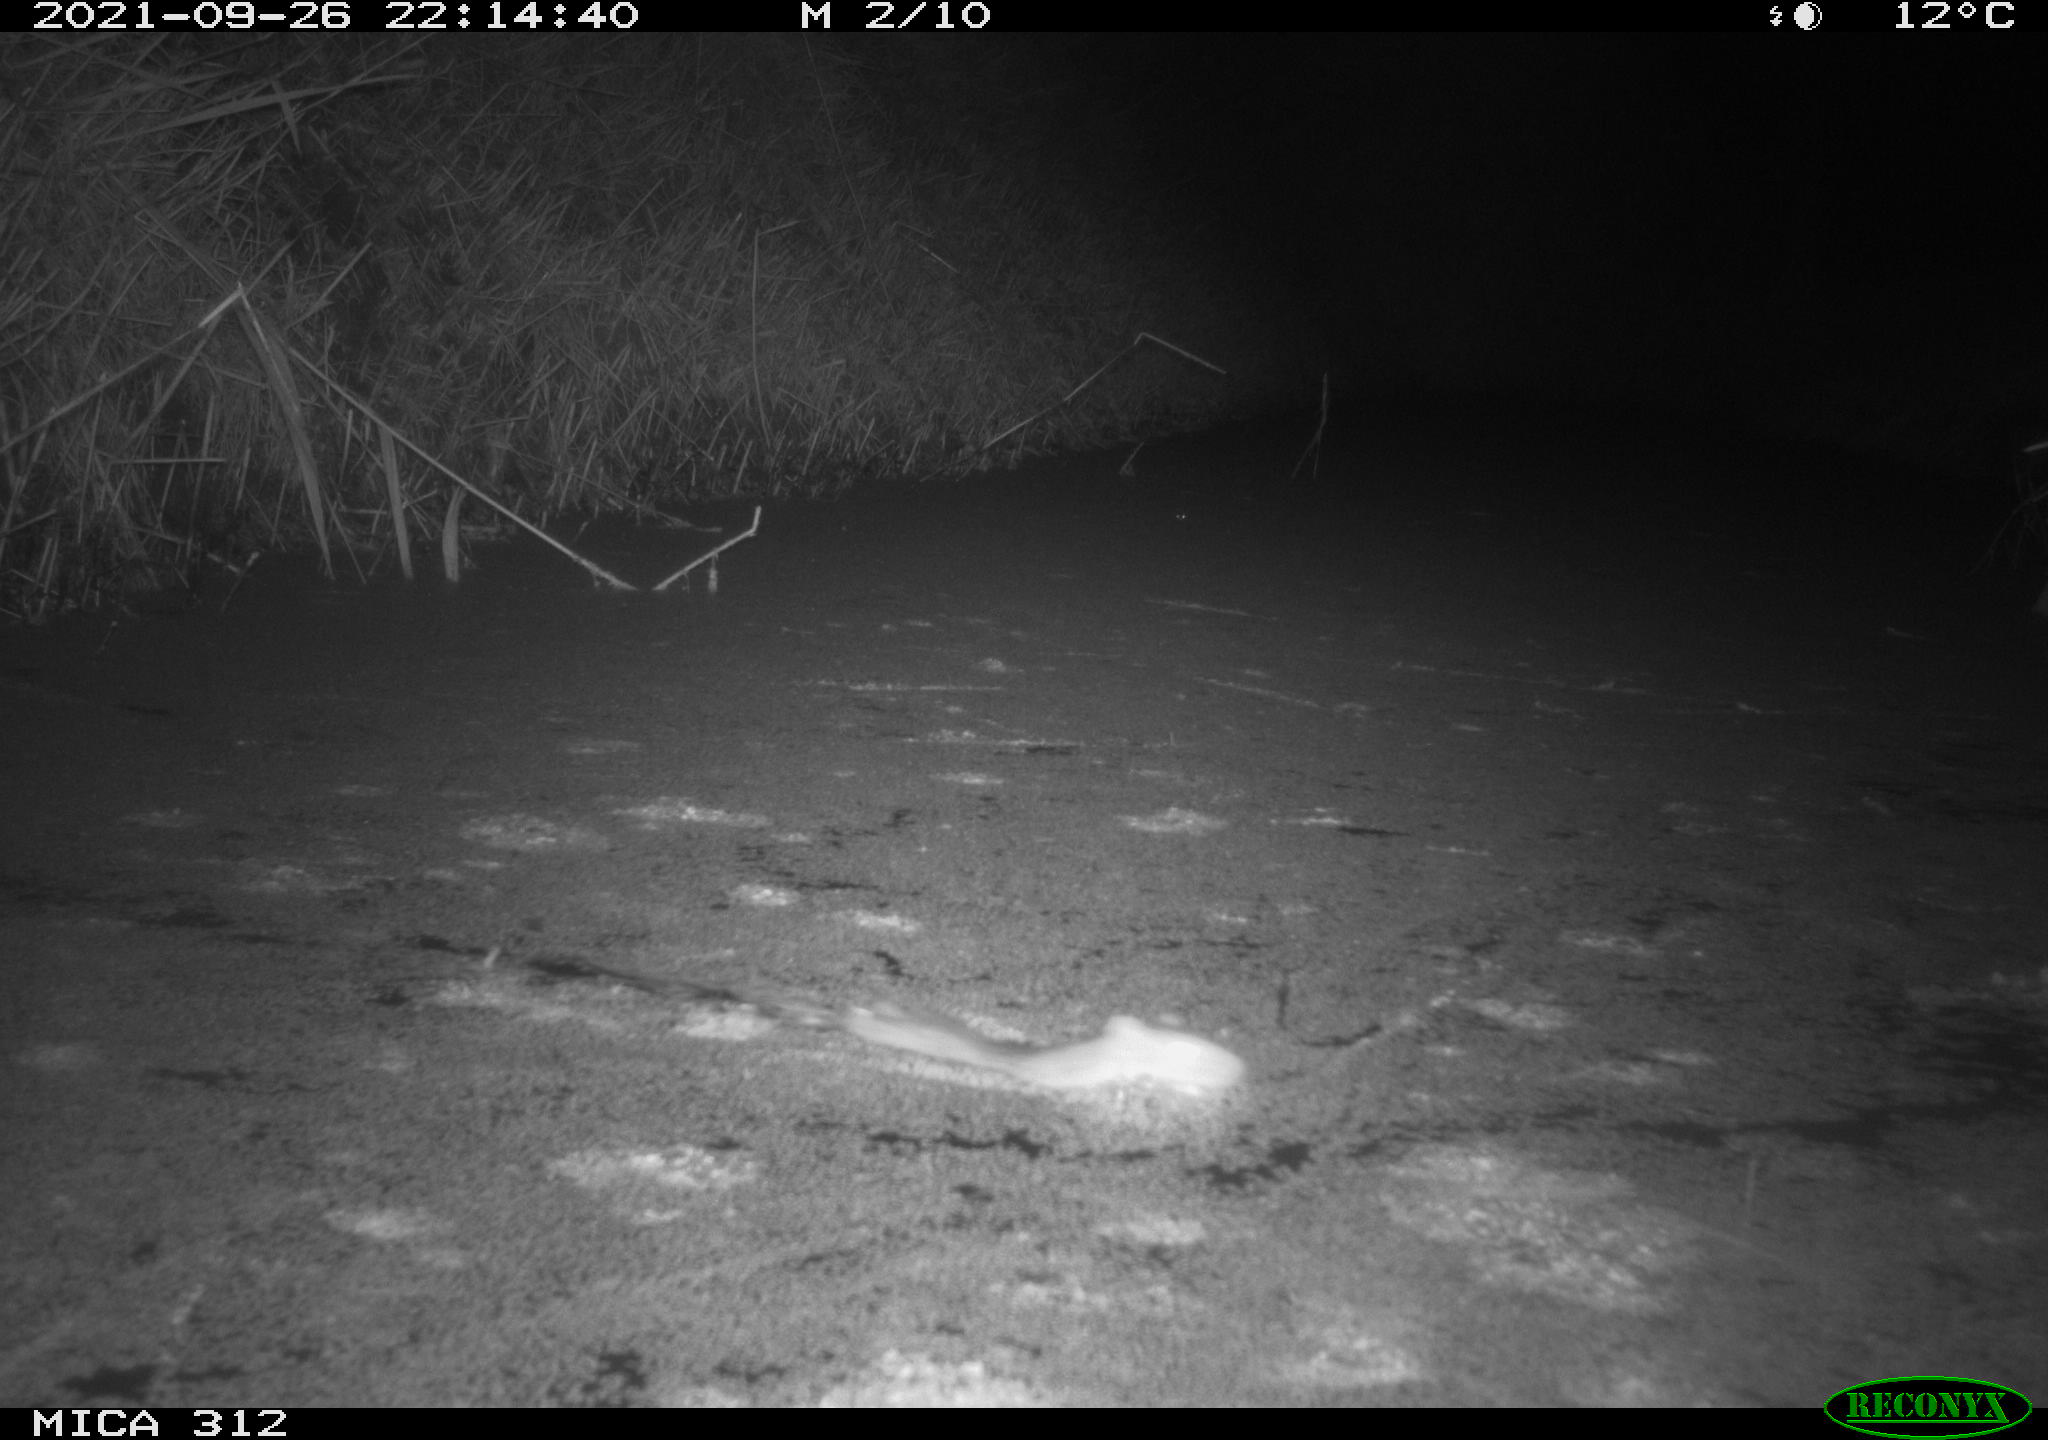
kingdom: Animalia
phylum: Chordata
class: Mammalia
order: Rodentia
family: Muridae
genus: Rattus
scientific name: Rattus norvegicus
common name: Brown rat
